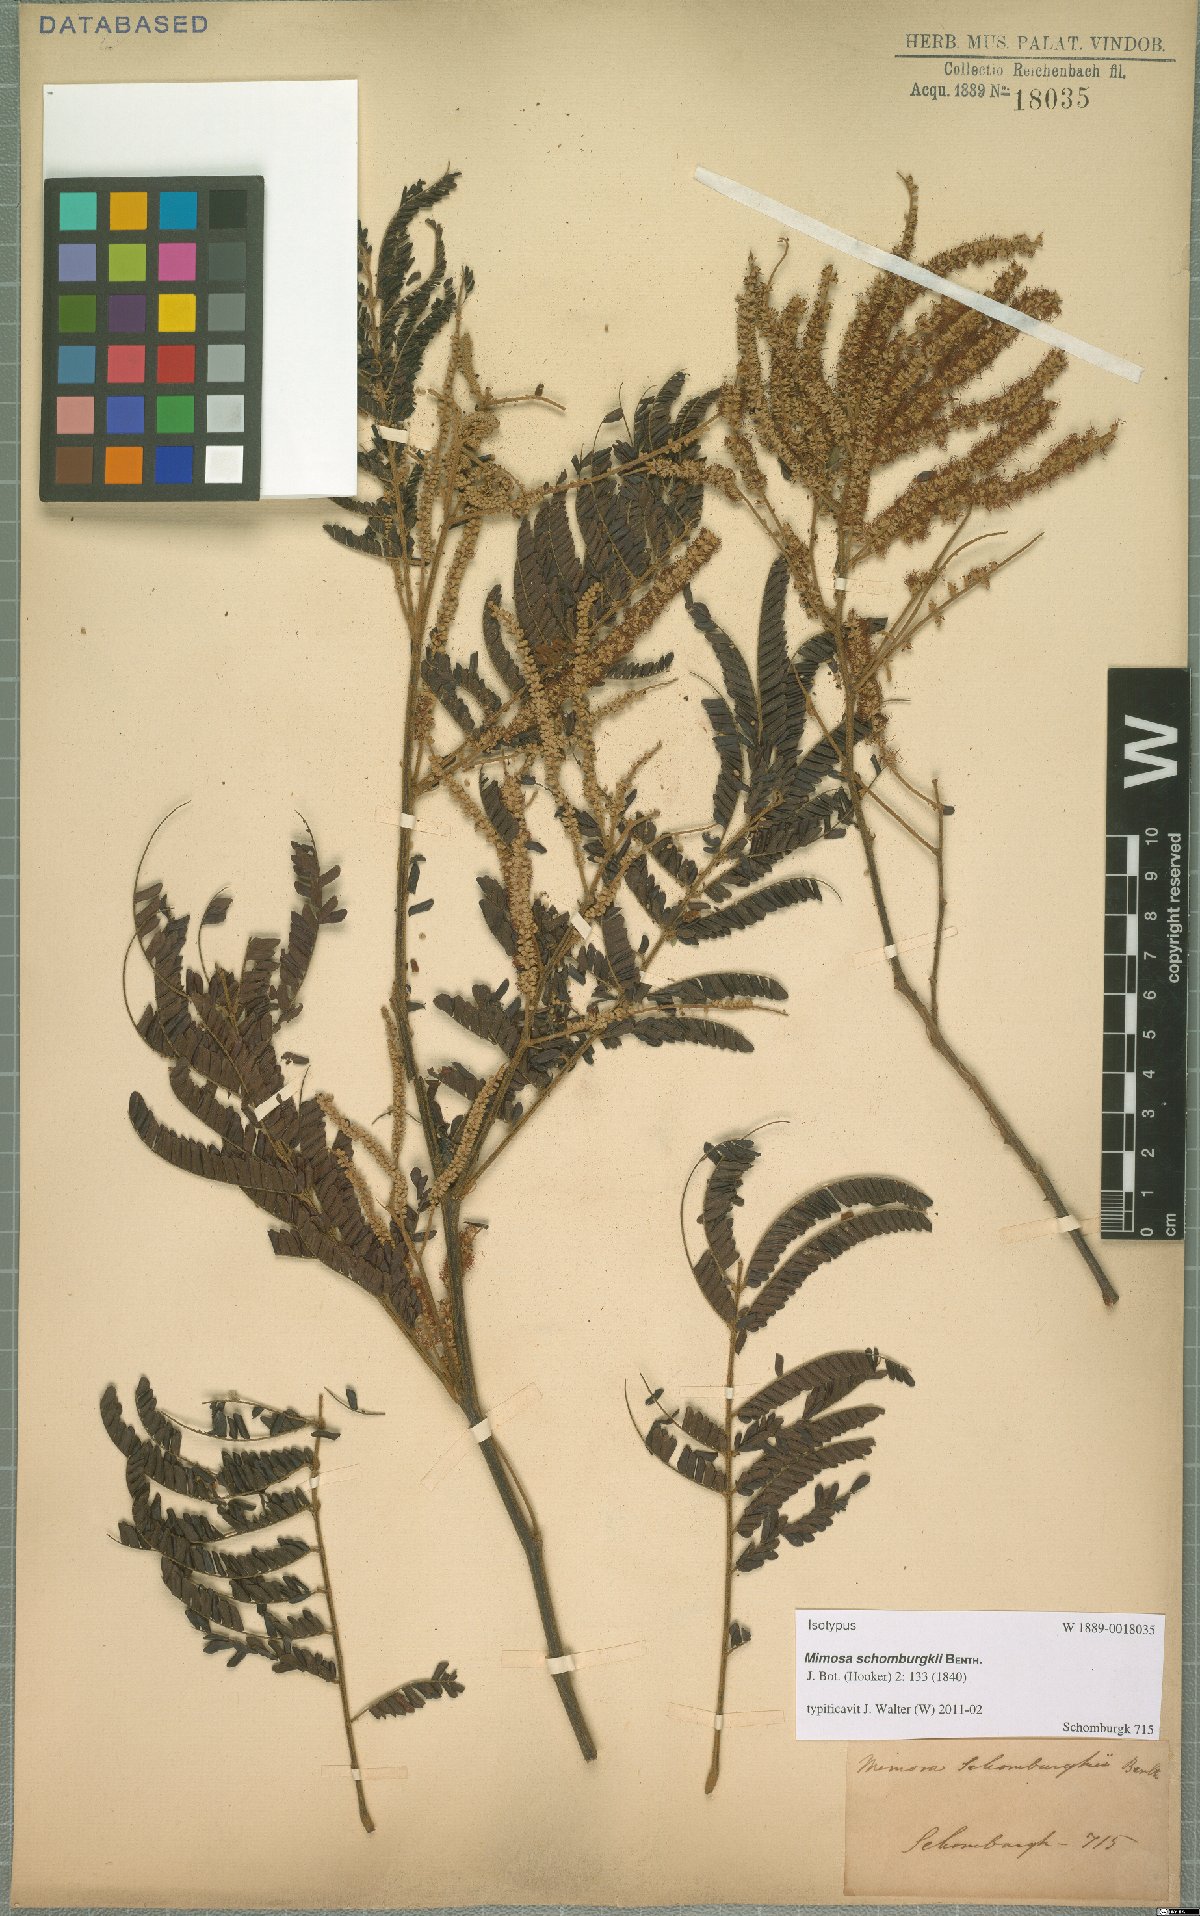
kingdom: Plantae
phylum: Tracheophyta
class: Magnoliopsida
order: Fabales
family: Fabaceae
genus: Mimosa
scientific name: Mimosa schomburgkii
